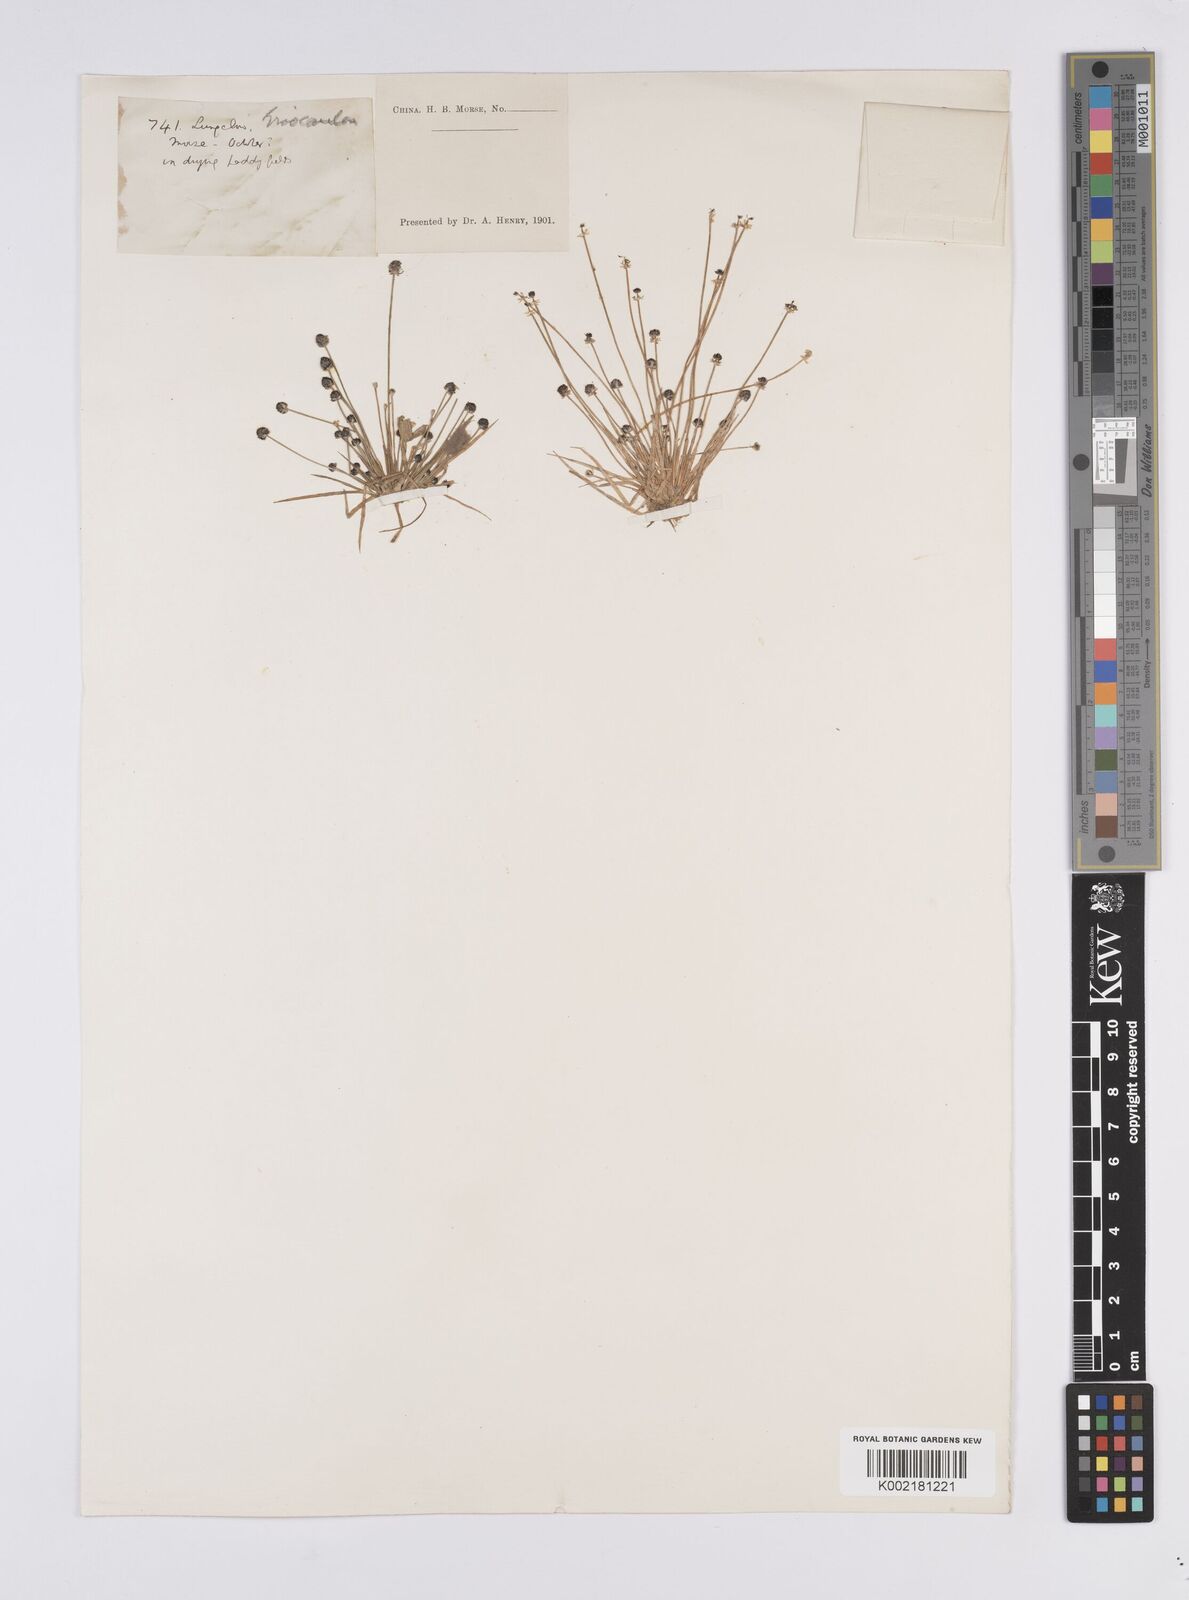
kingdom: Plantae
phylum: Tracheophyta
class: Liliopsida
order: Poales
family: Eriocaulaceae
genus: Eriocaulon
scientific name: Eriocaulon
